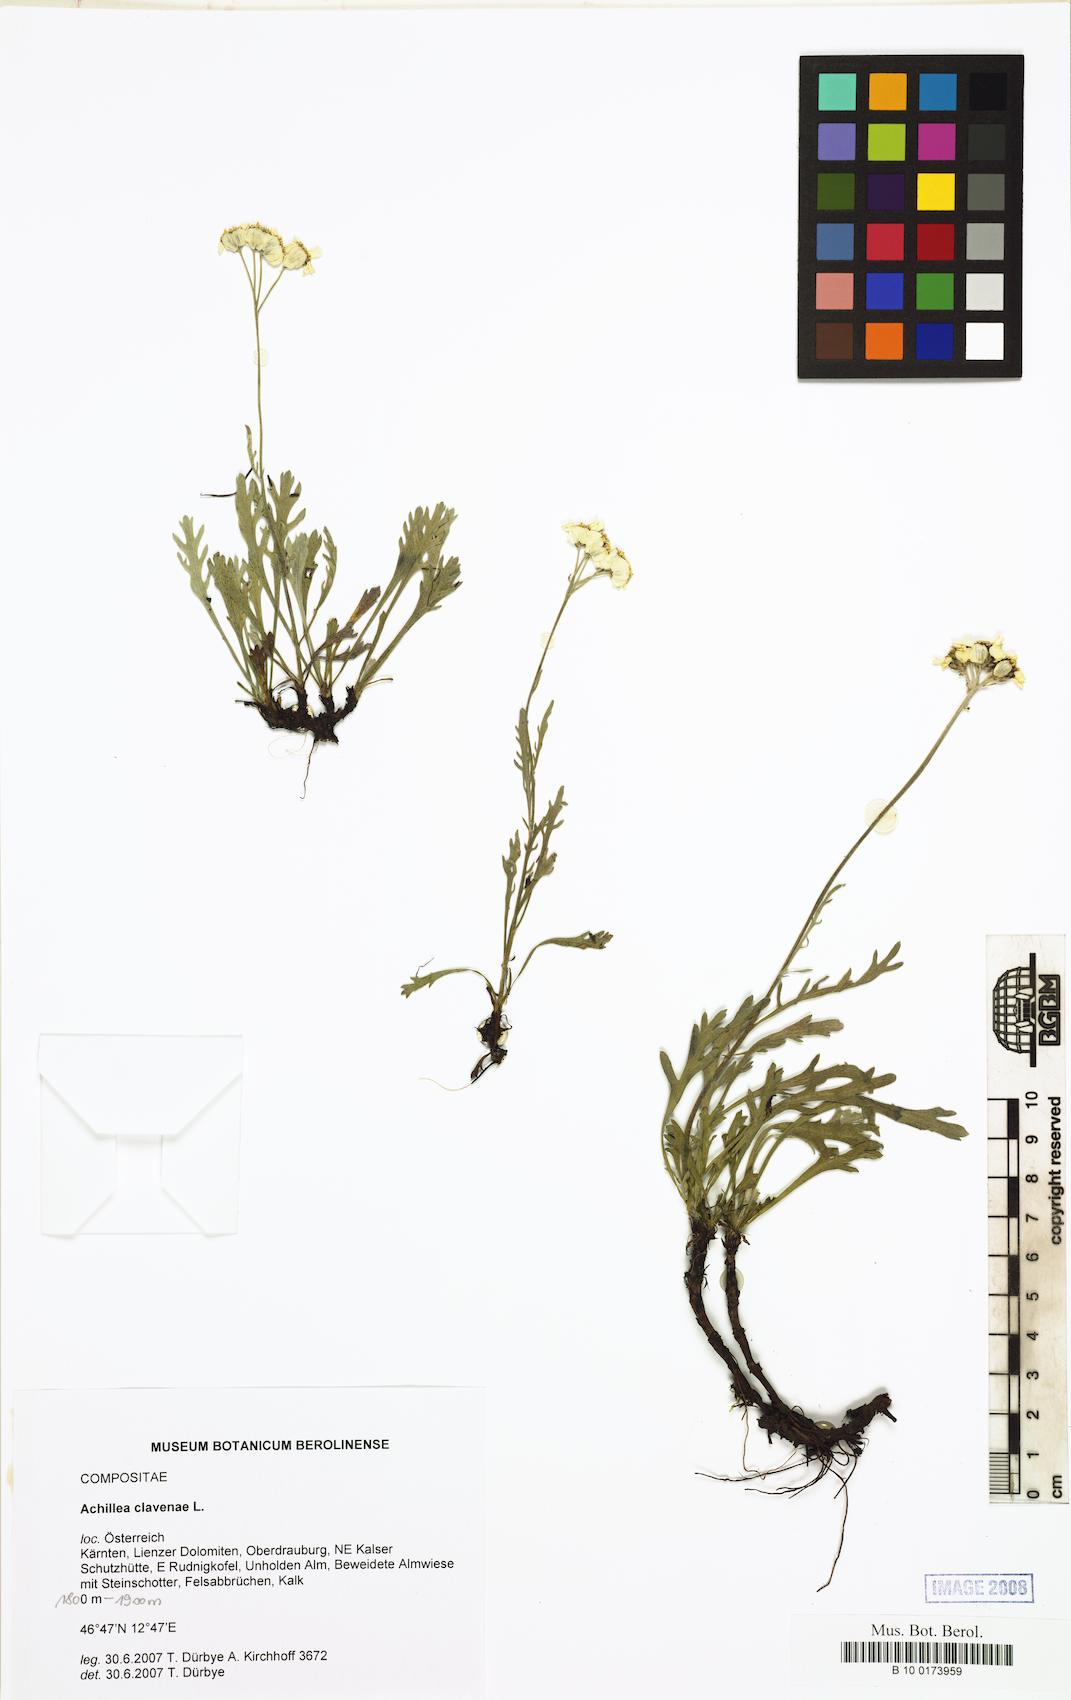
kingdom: Plantae
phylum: Tracheophyta
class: Magnoliopsida
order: Asterales
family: Asteraceae
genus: Achillea
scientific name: Achillea clavennae
